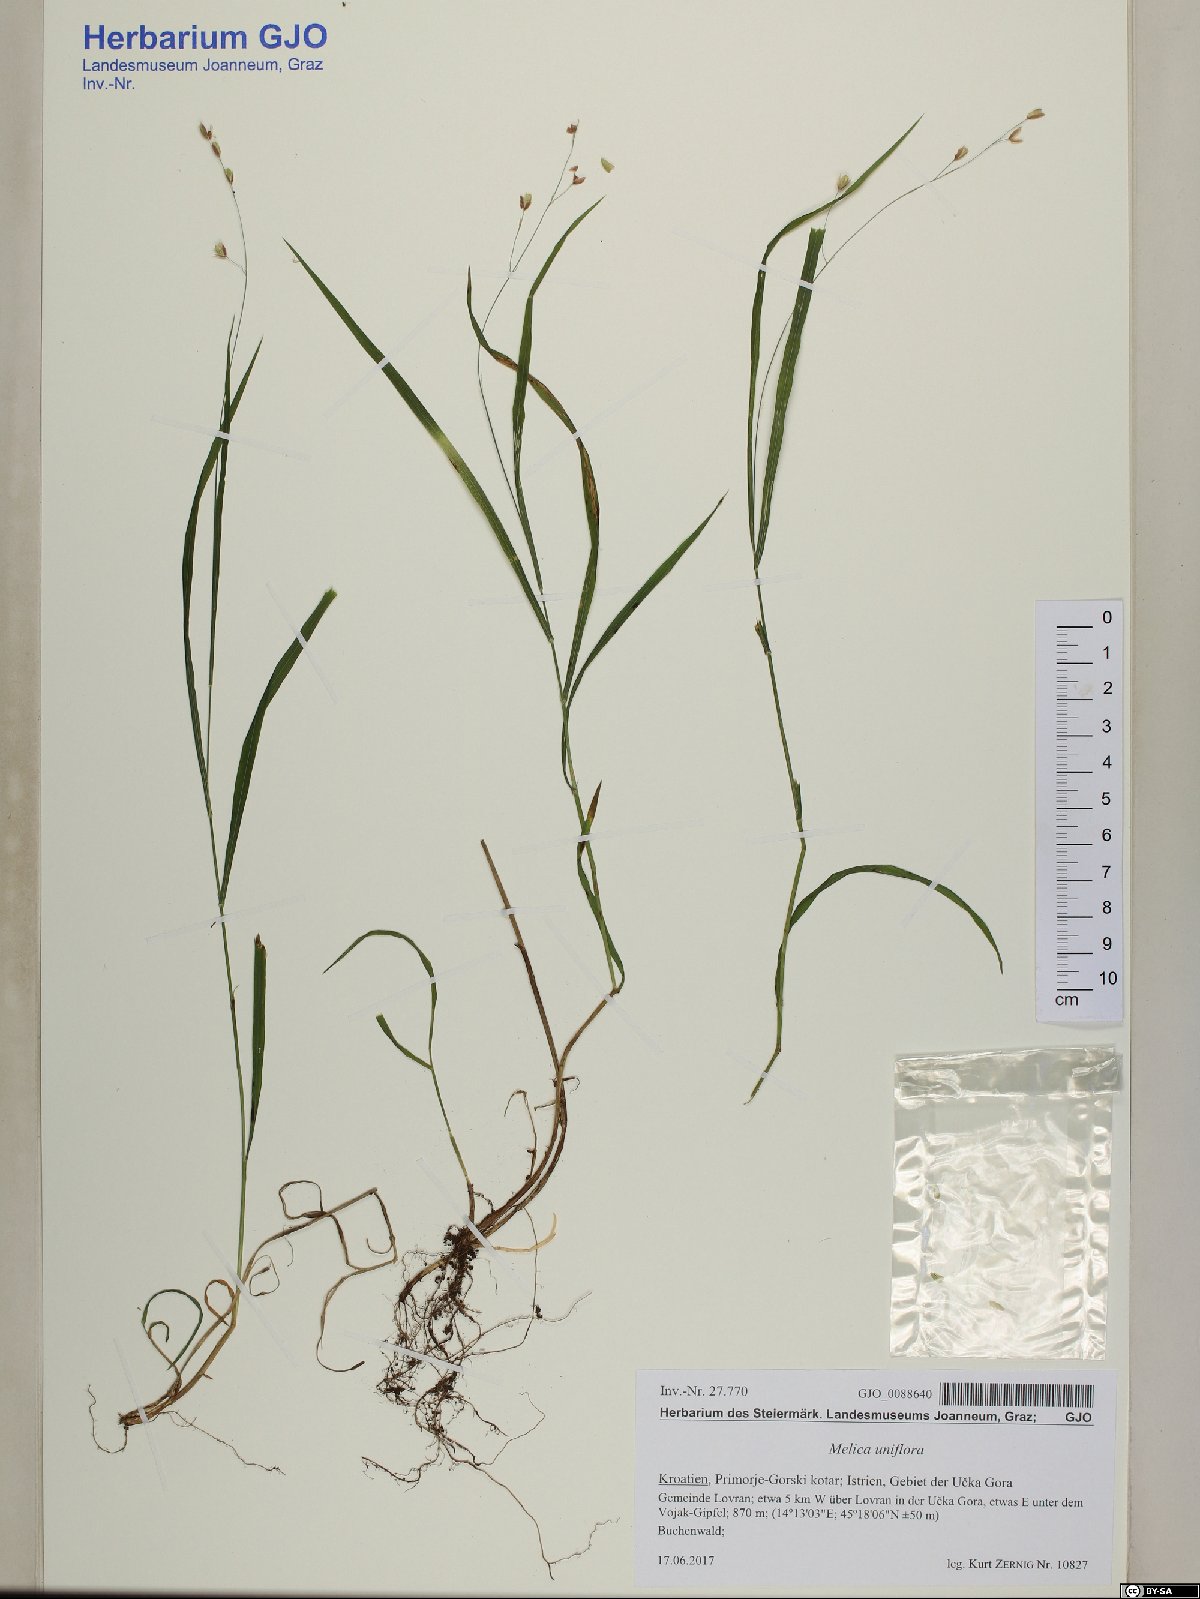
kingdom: Plantae
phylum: Tracheophyta
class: Liliopsida
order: Poales
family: Poaceae
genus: Melica
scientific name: Melica uniflora
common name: Wood melick
